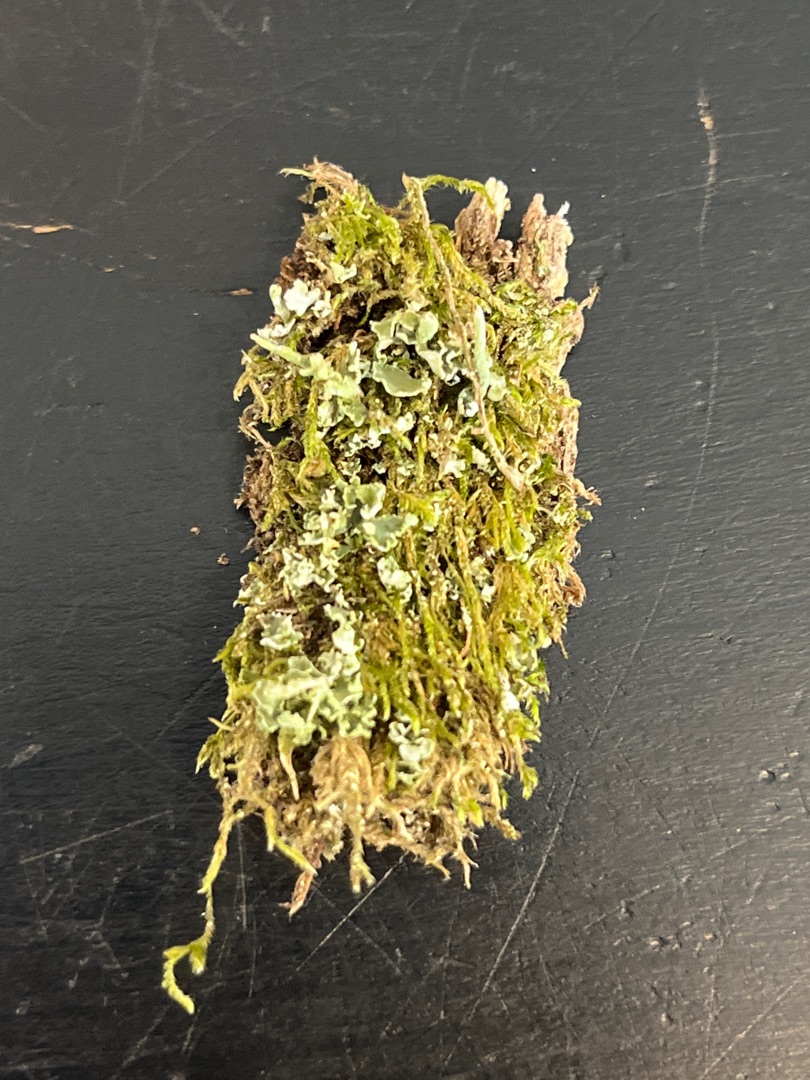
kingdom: Fungi
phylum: Ascomycota
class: Lecanoromycetes
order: Lecanorales
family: Cladoniaceae
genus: Cladonia
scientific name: Cladonia
